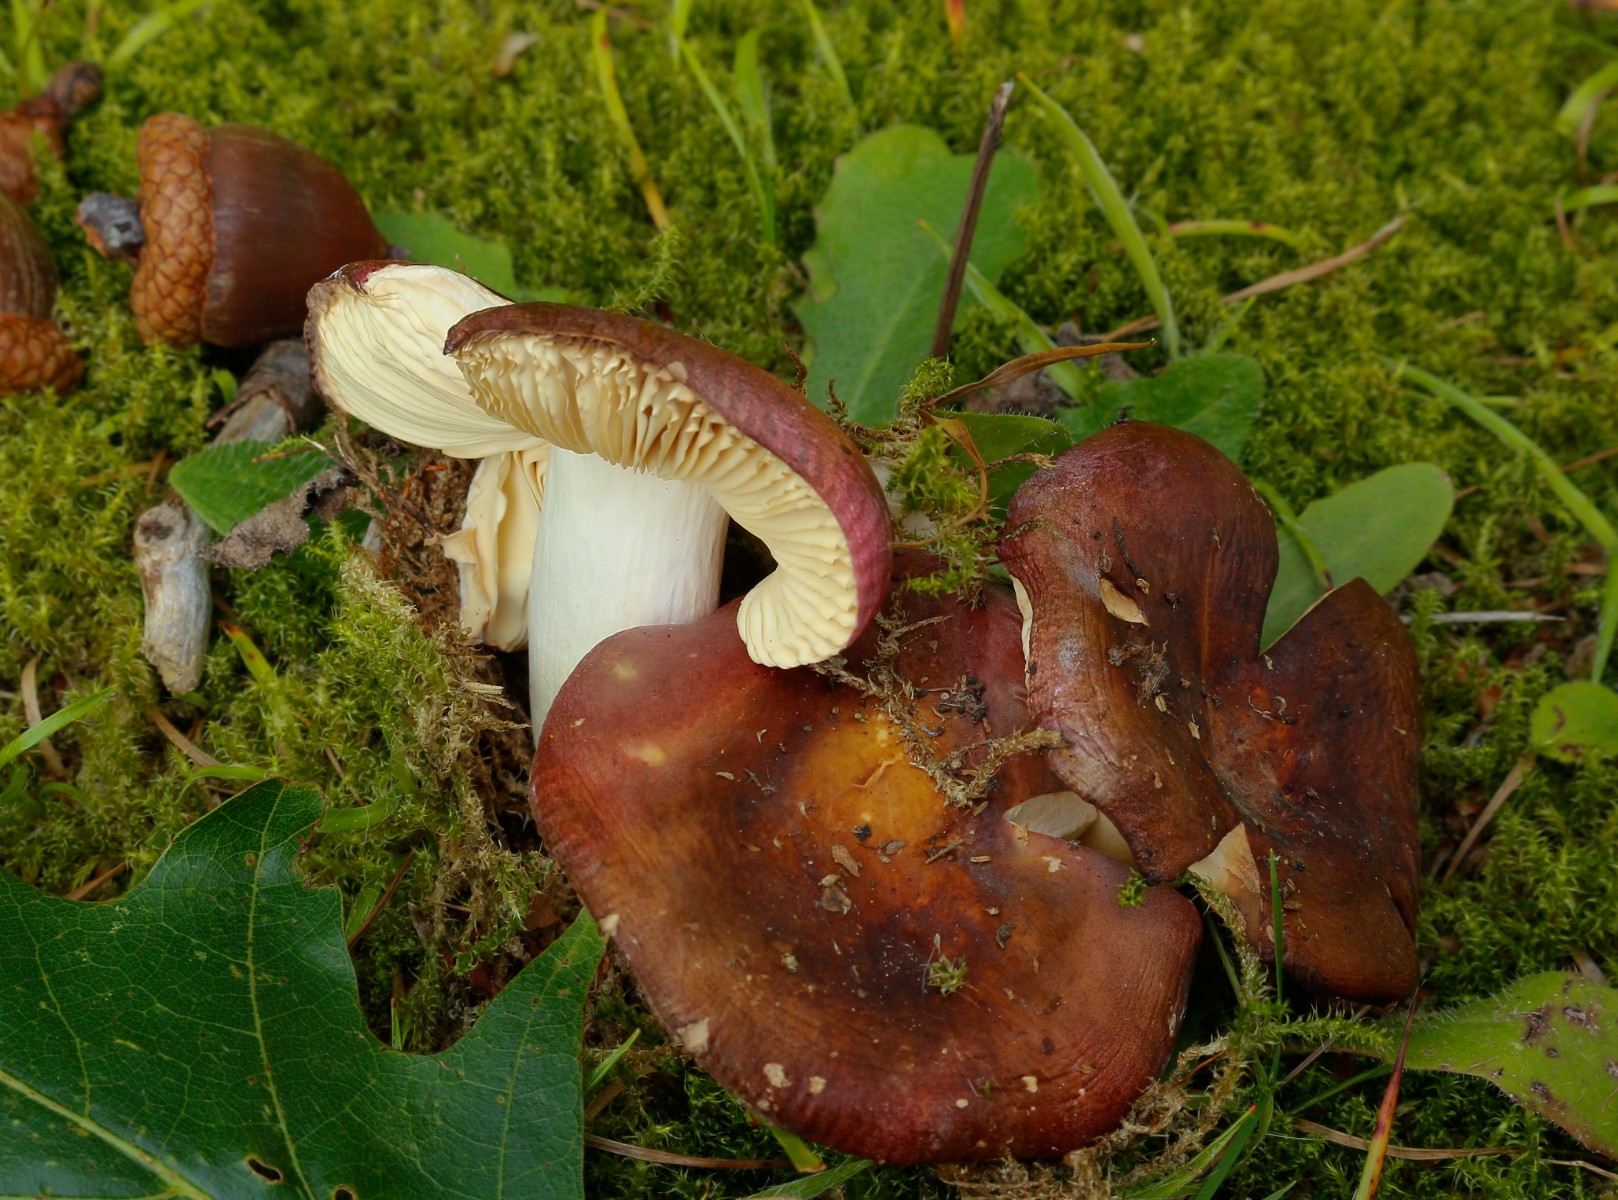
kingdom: Fungi
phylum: Basidiomycota
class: Agaricomycetes
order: Russulales
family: Russulaceae
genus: Russula
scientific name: Russula
